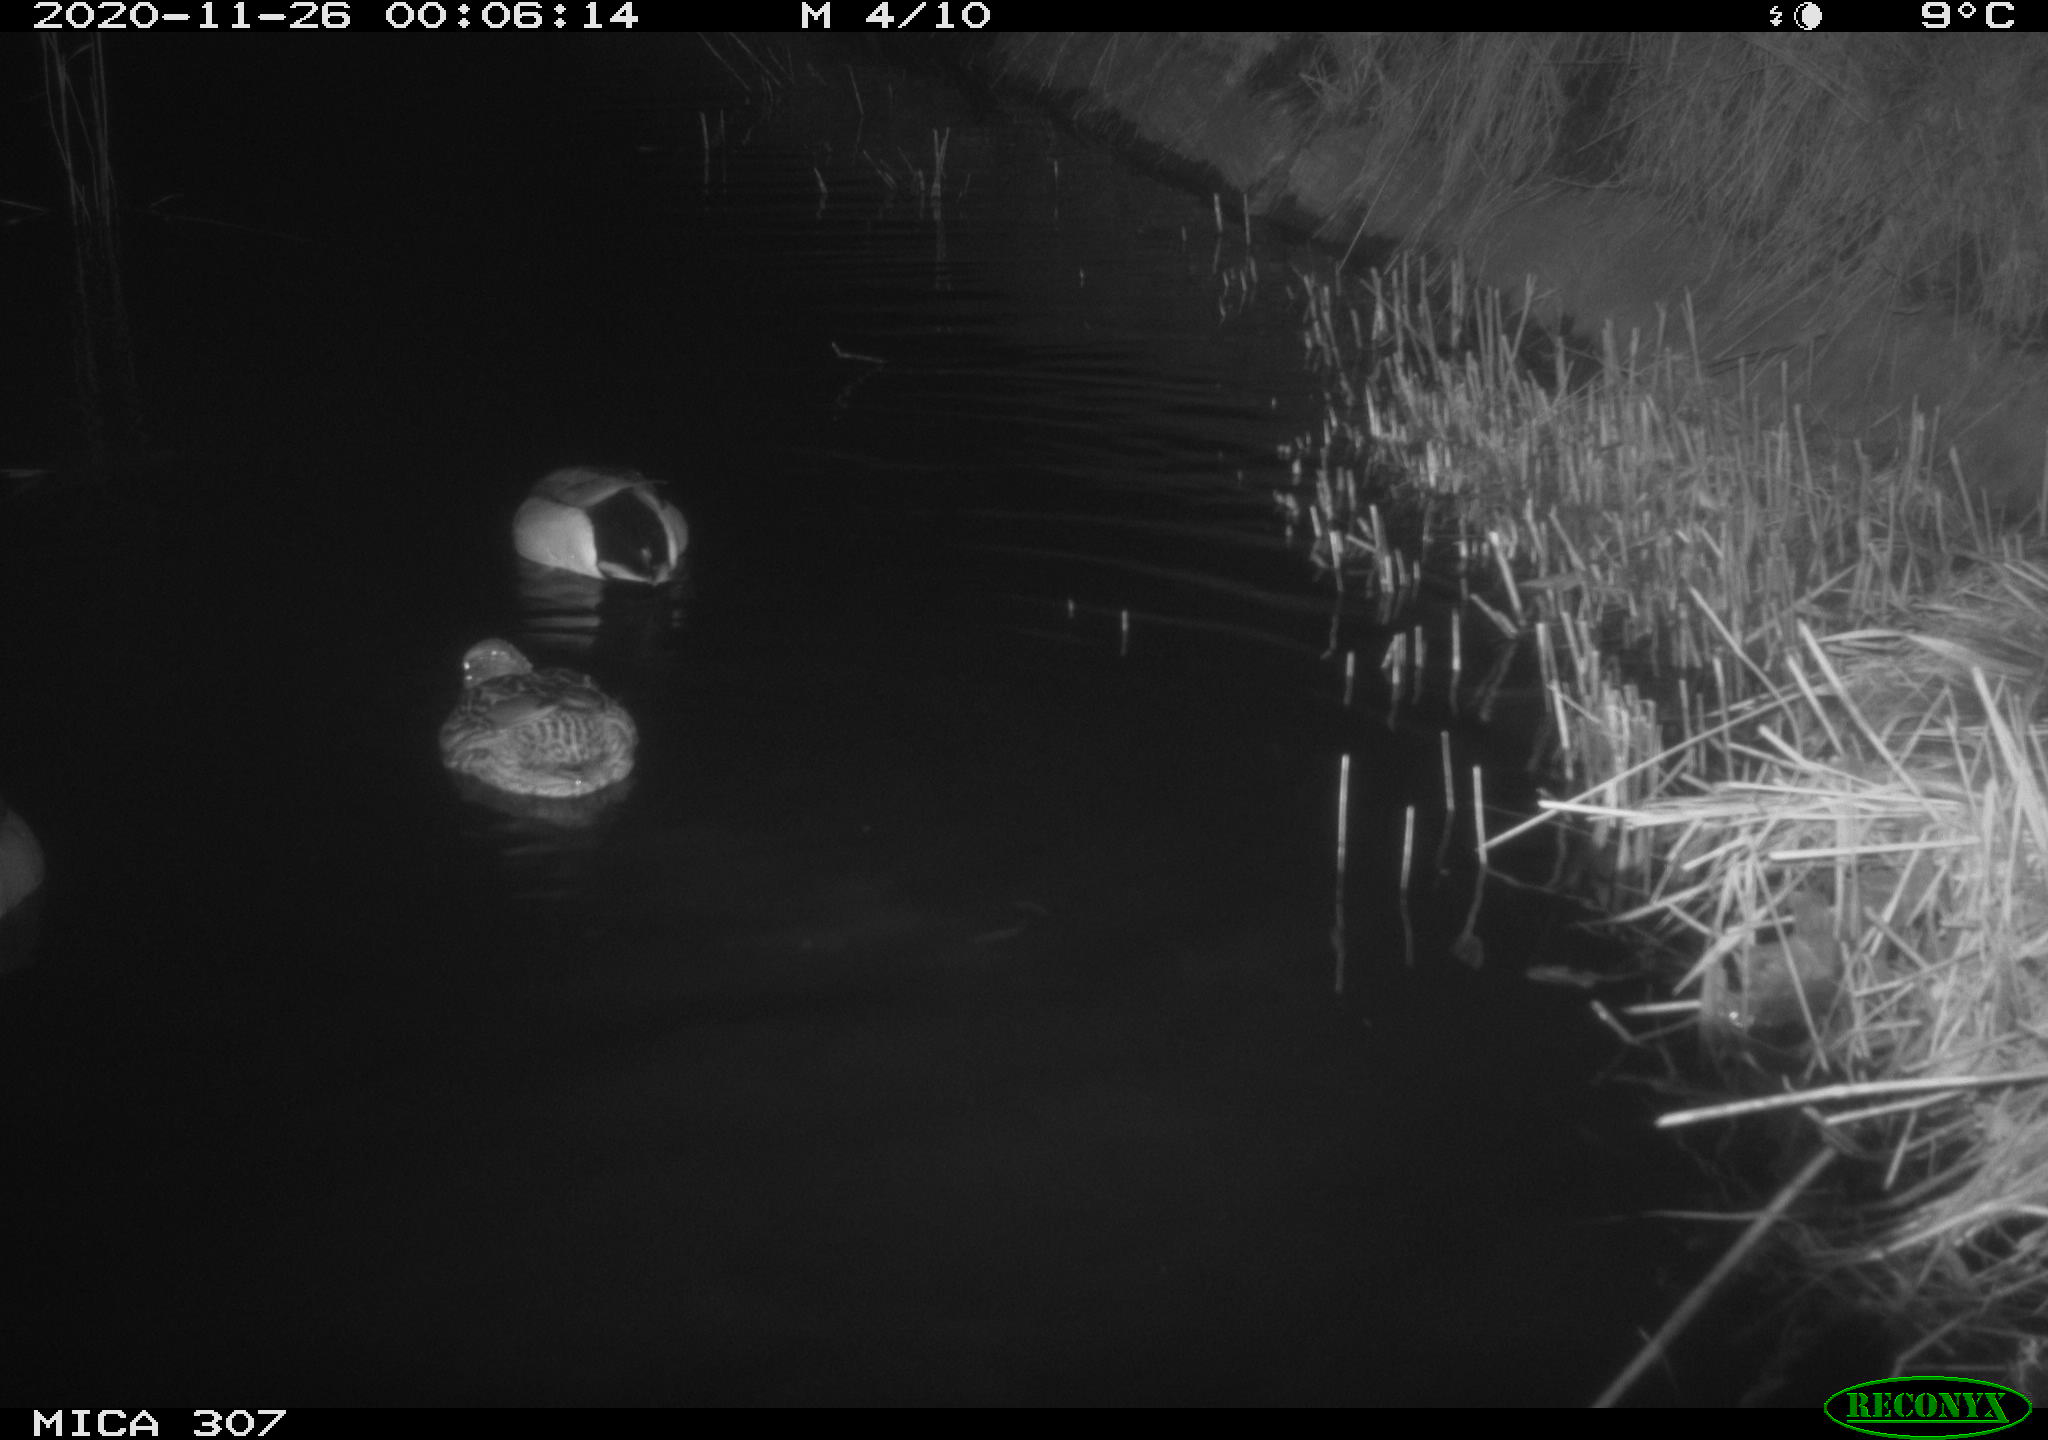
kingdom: Animalia
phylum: Chordata
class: Aves
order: Anseriformes
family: Anatidae
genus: Anas
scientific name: Anas platyrhynchos
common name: Mallard
